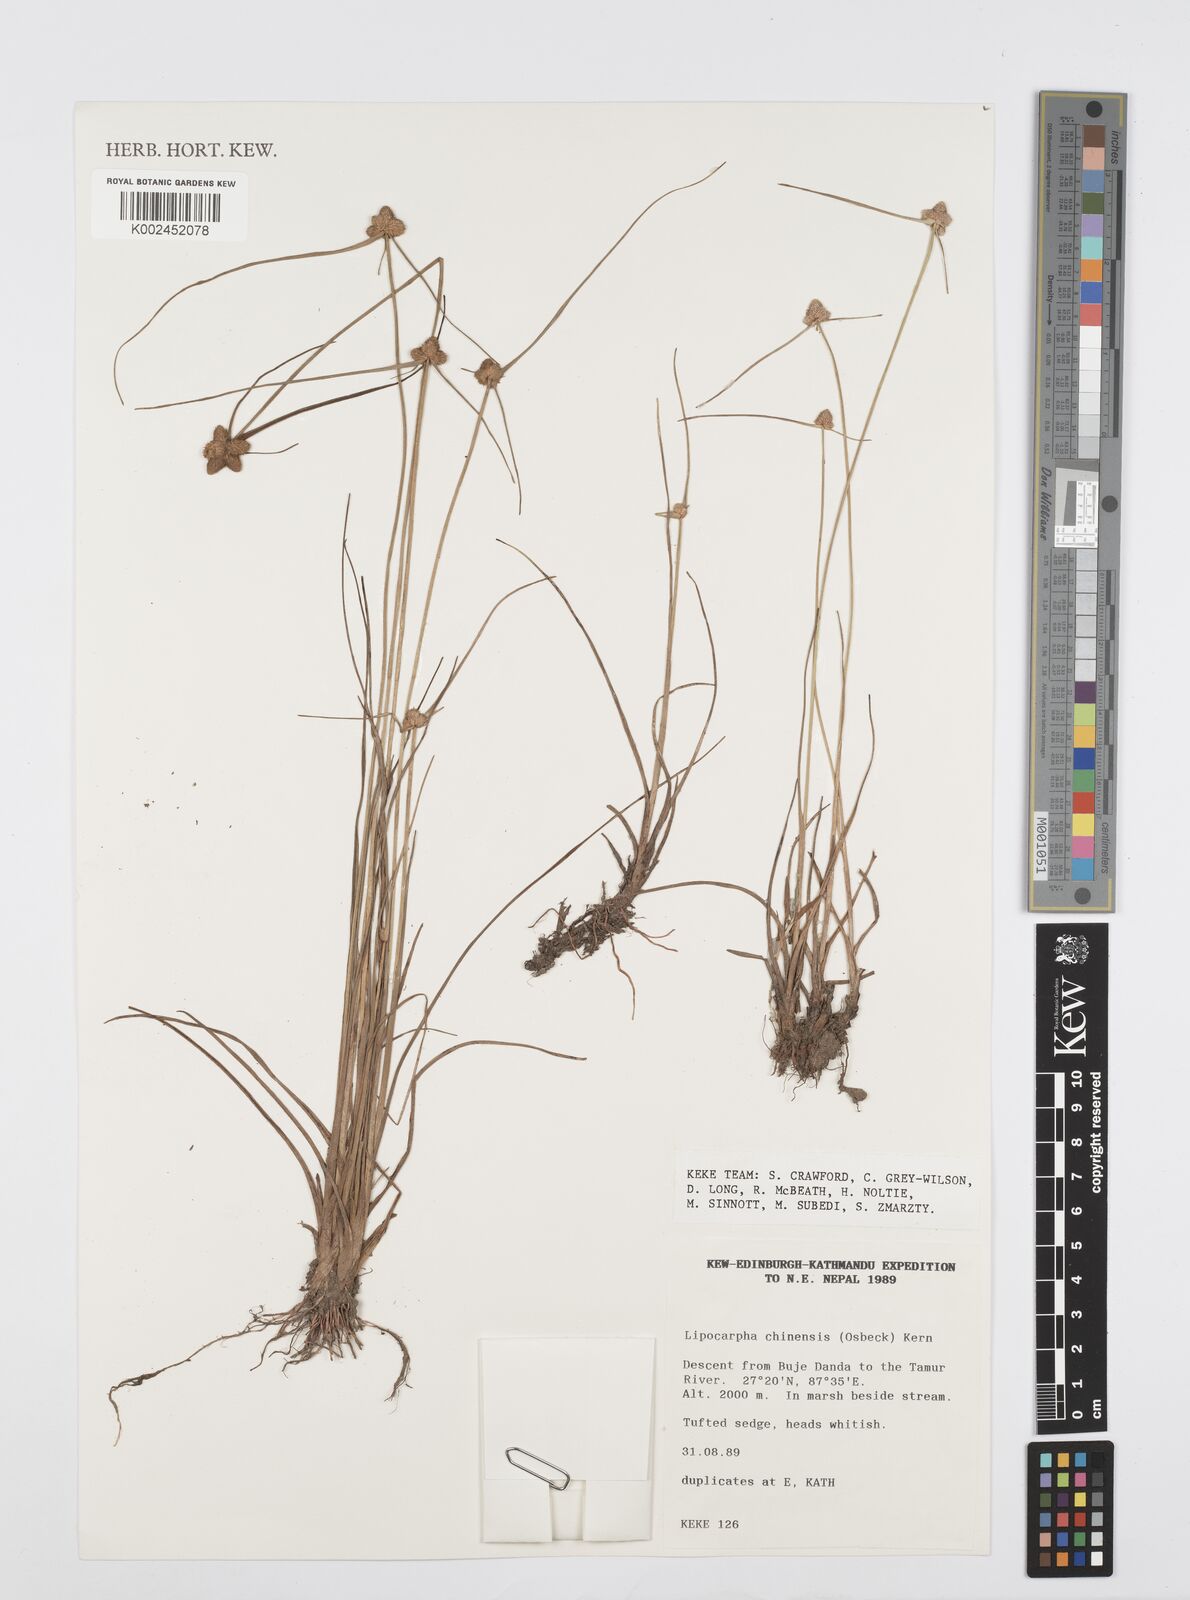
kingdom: Plantae
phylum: Tracheophyta
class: Liliopsida
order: Poales
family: Cyperaceae
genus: Cyperus
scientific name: Cyperus
